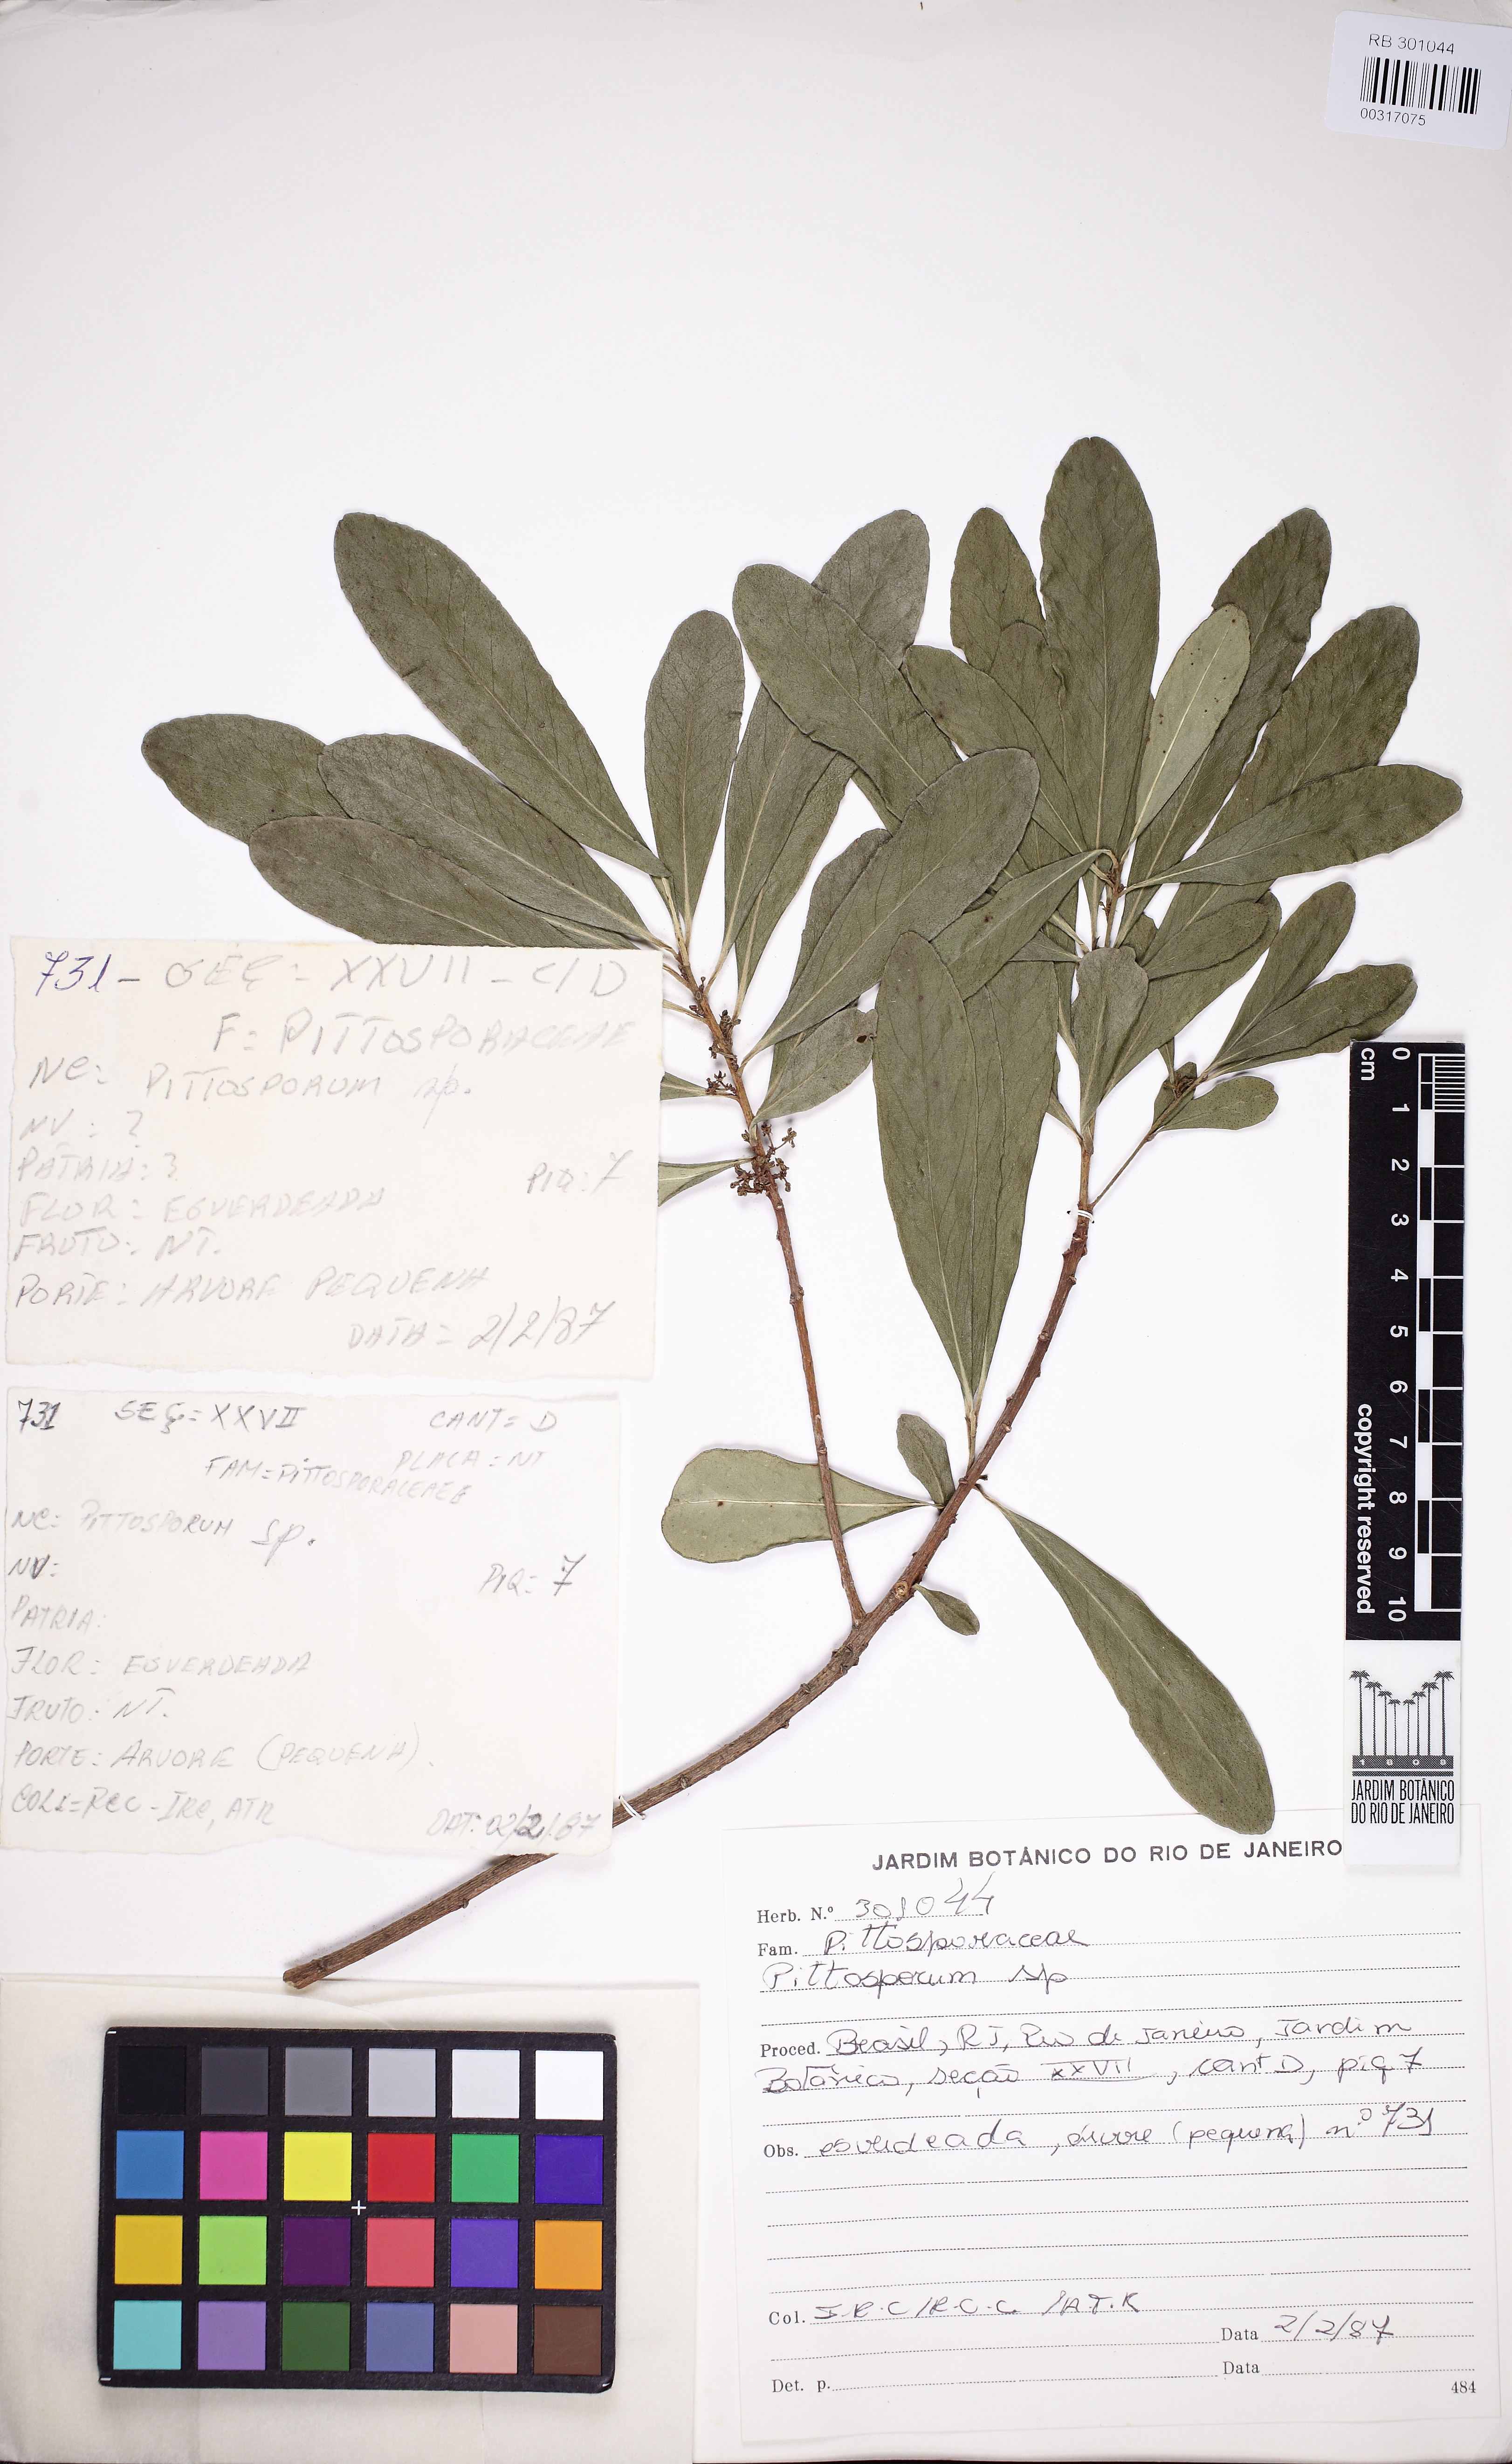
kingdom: Plantae
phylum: Tracheophyta
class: Magnoliopsida
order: Apiales
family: Pittosporaceae
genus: Pittosporum
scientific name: Pittosporum
